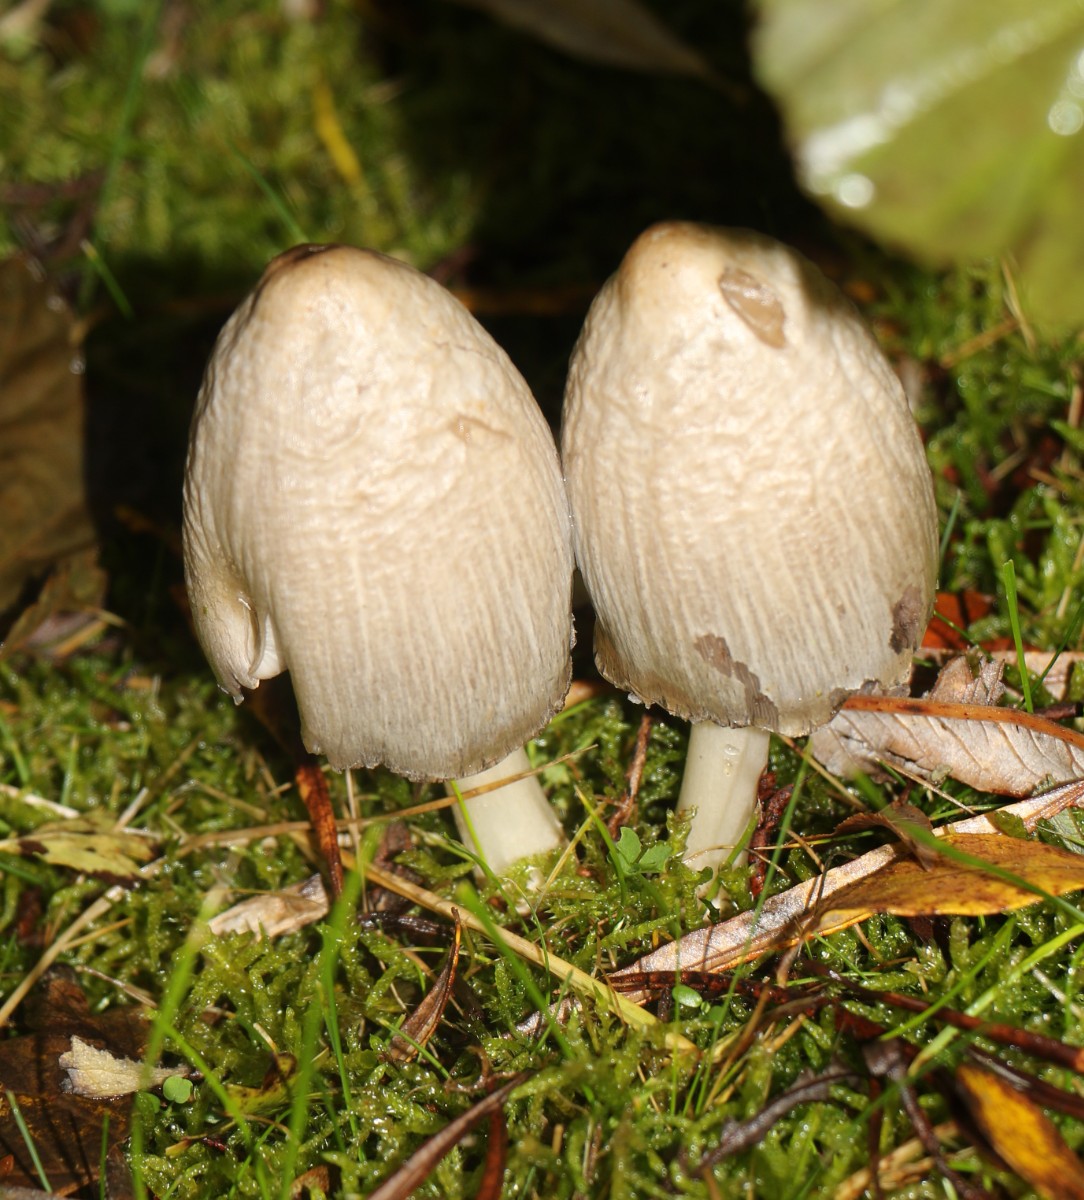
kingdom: Fungi
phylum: Basidiomycota
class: Agaricomycetes
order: Agaricales
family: Psathyrellaceae
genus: Coprinopsis
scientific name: Coprinopsis atramentaria
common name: almindelig blækhat
